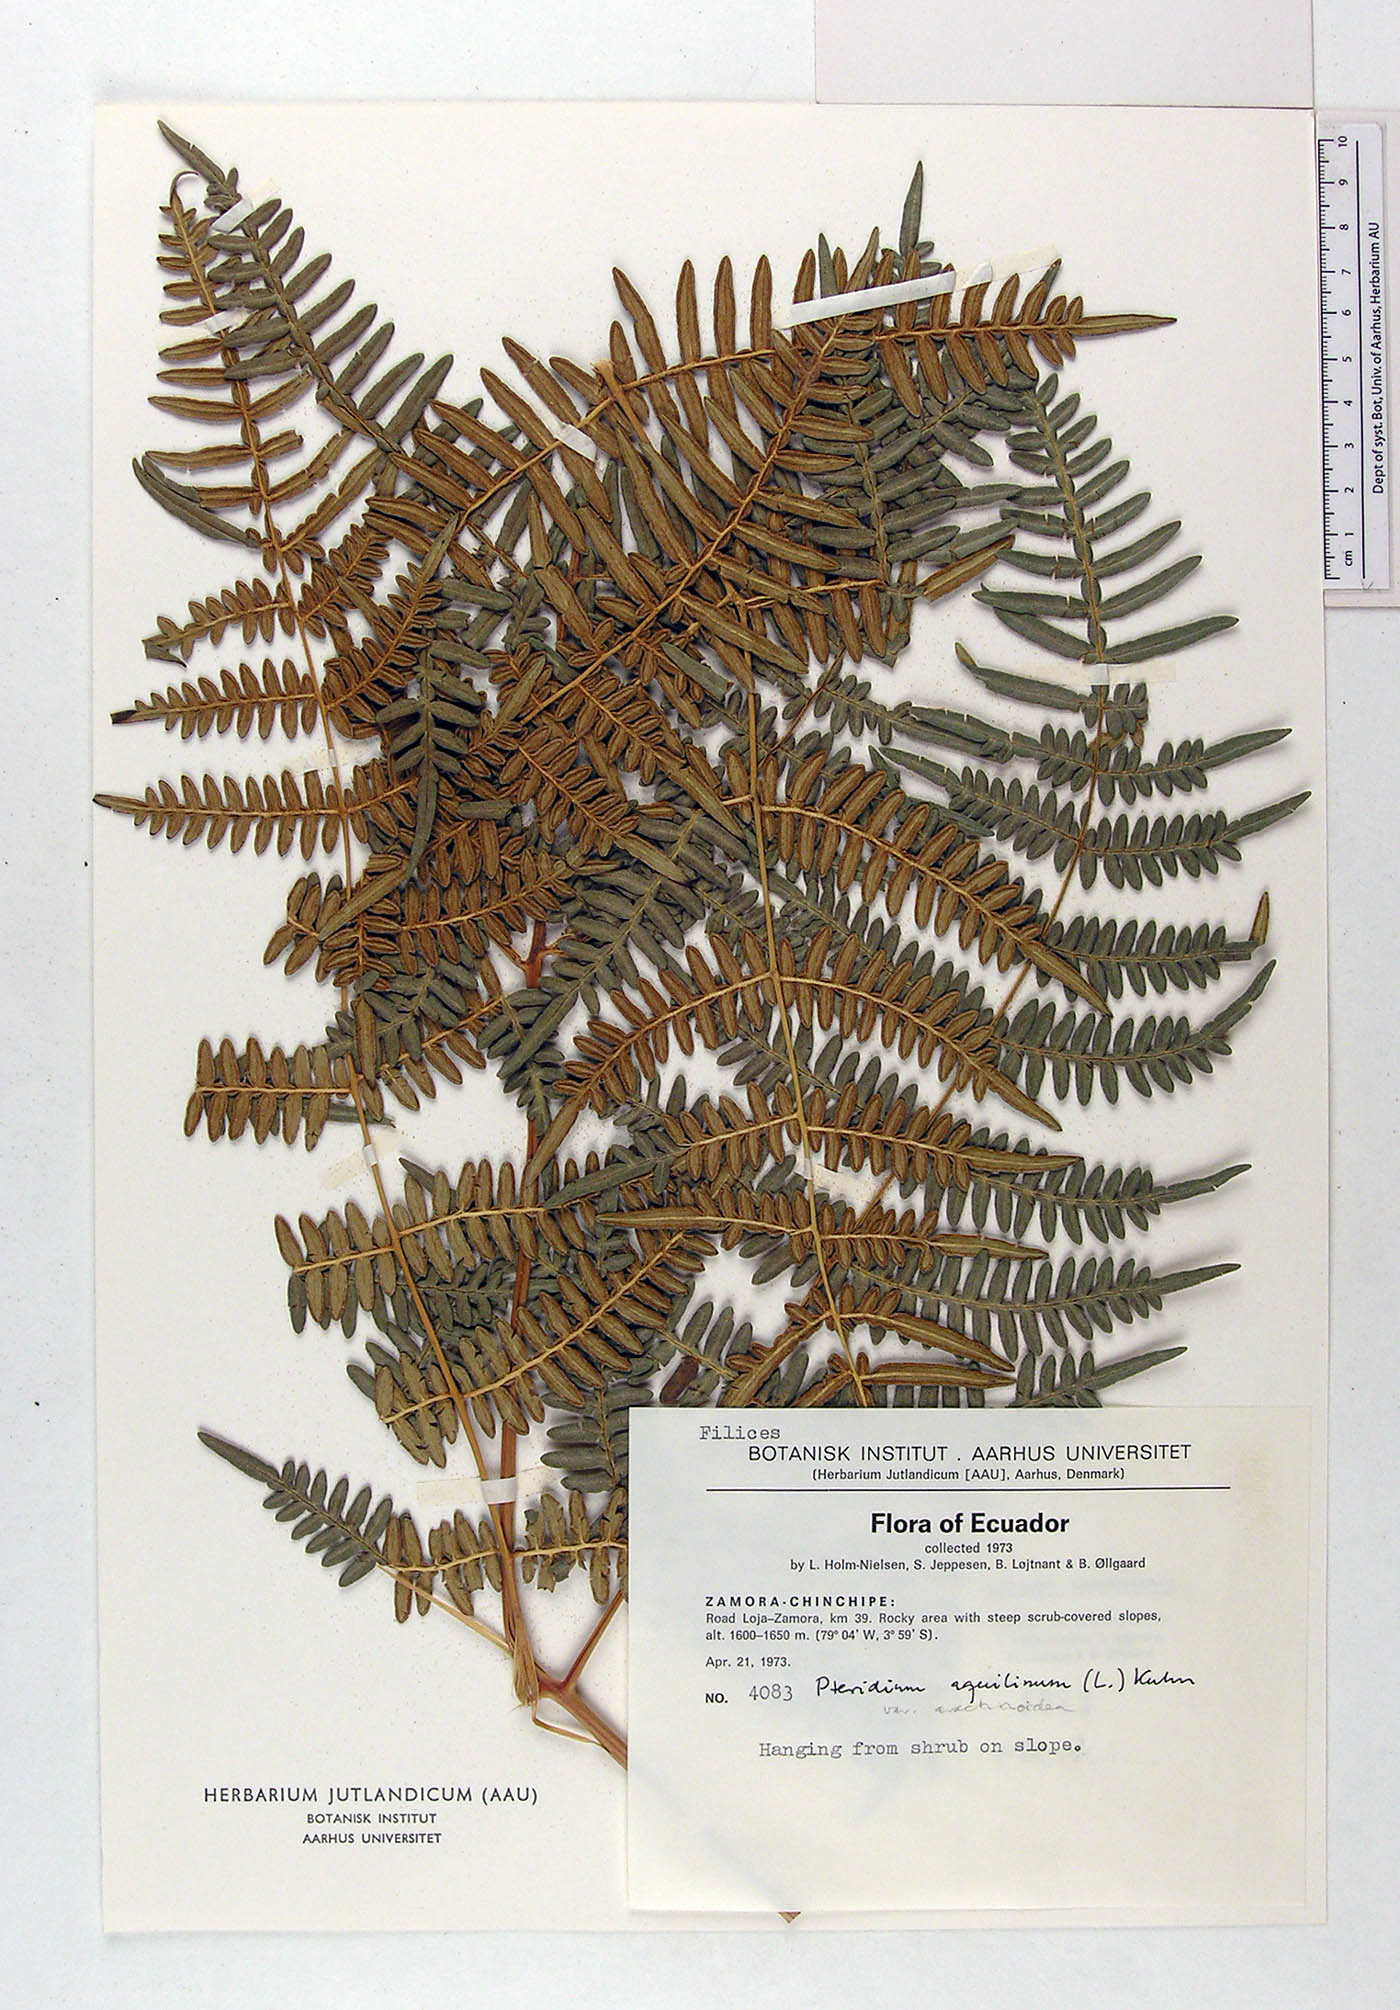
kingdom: Plantae
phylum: Tracheophyta
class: Polypodiopsida
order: Polypodiales
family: Dennstaedtiaceae
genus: Pteridium
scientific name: Pteridium aquilinum
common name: Bracken
